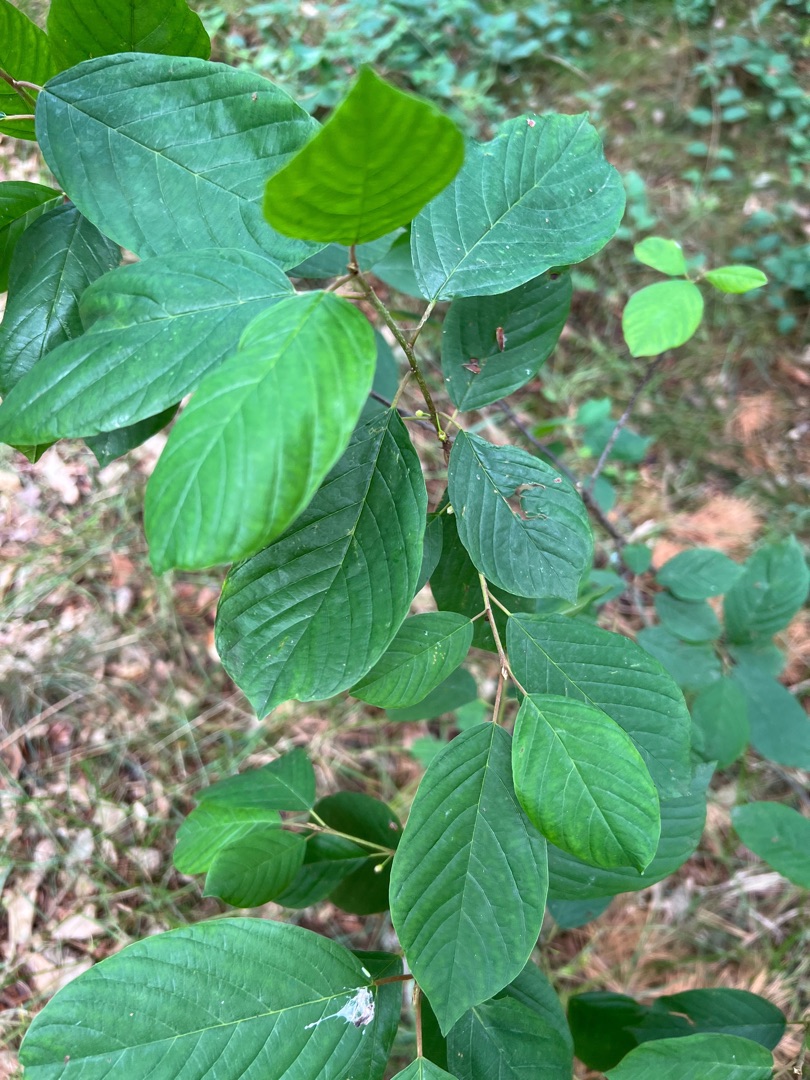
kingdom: Plantae
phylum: Tracheophyta
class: Magnoliopsida
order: Rosales
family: Rhamnaceae
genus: Frangula
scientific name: Frangula alnus
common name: Tørst
